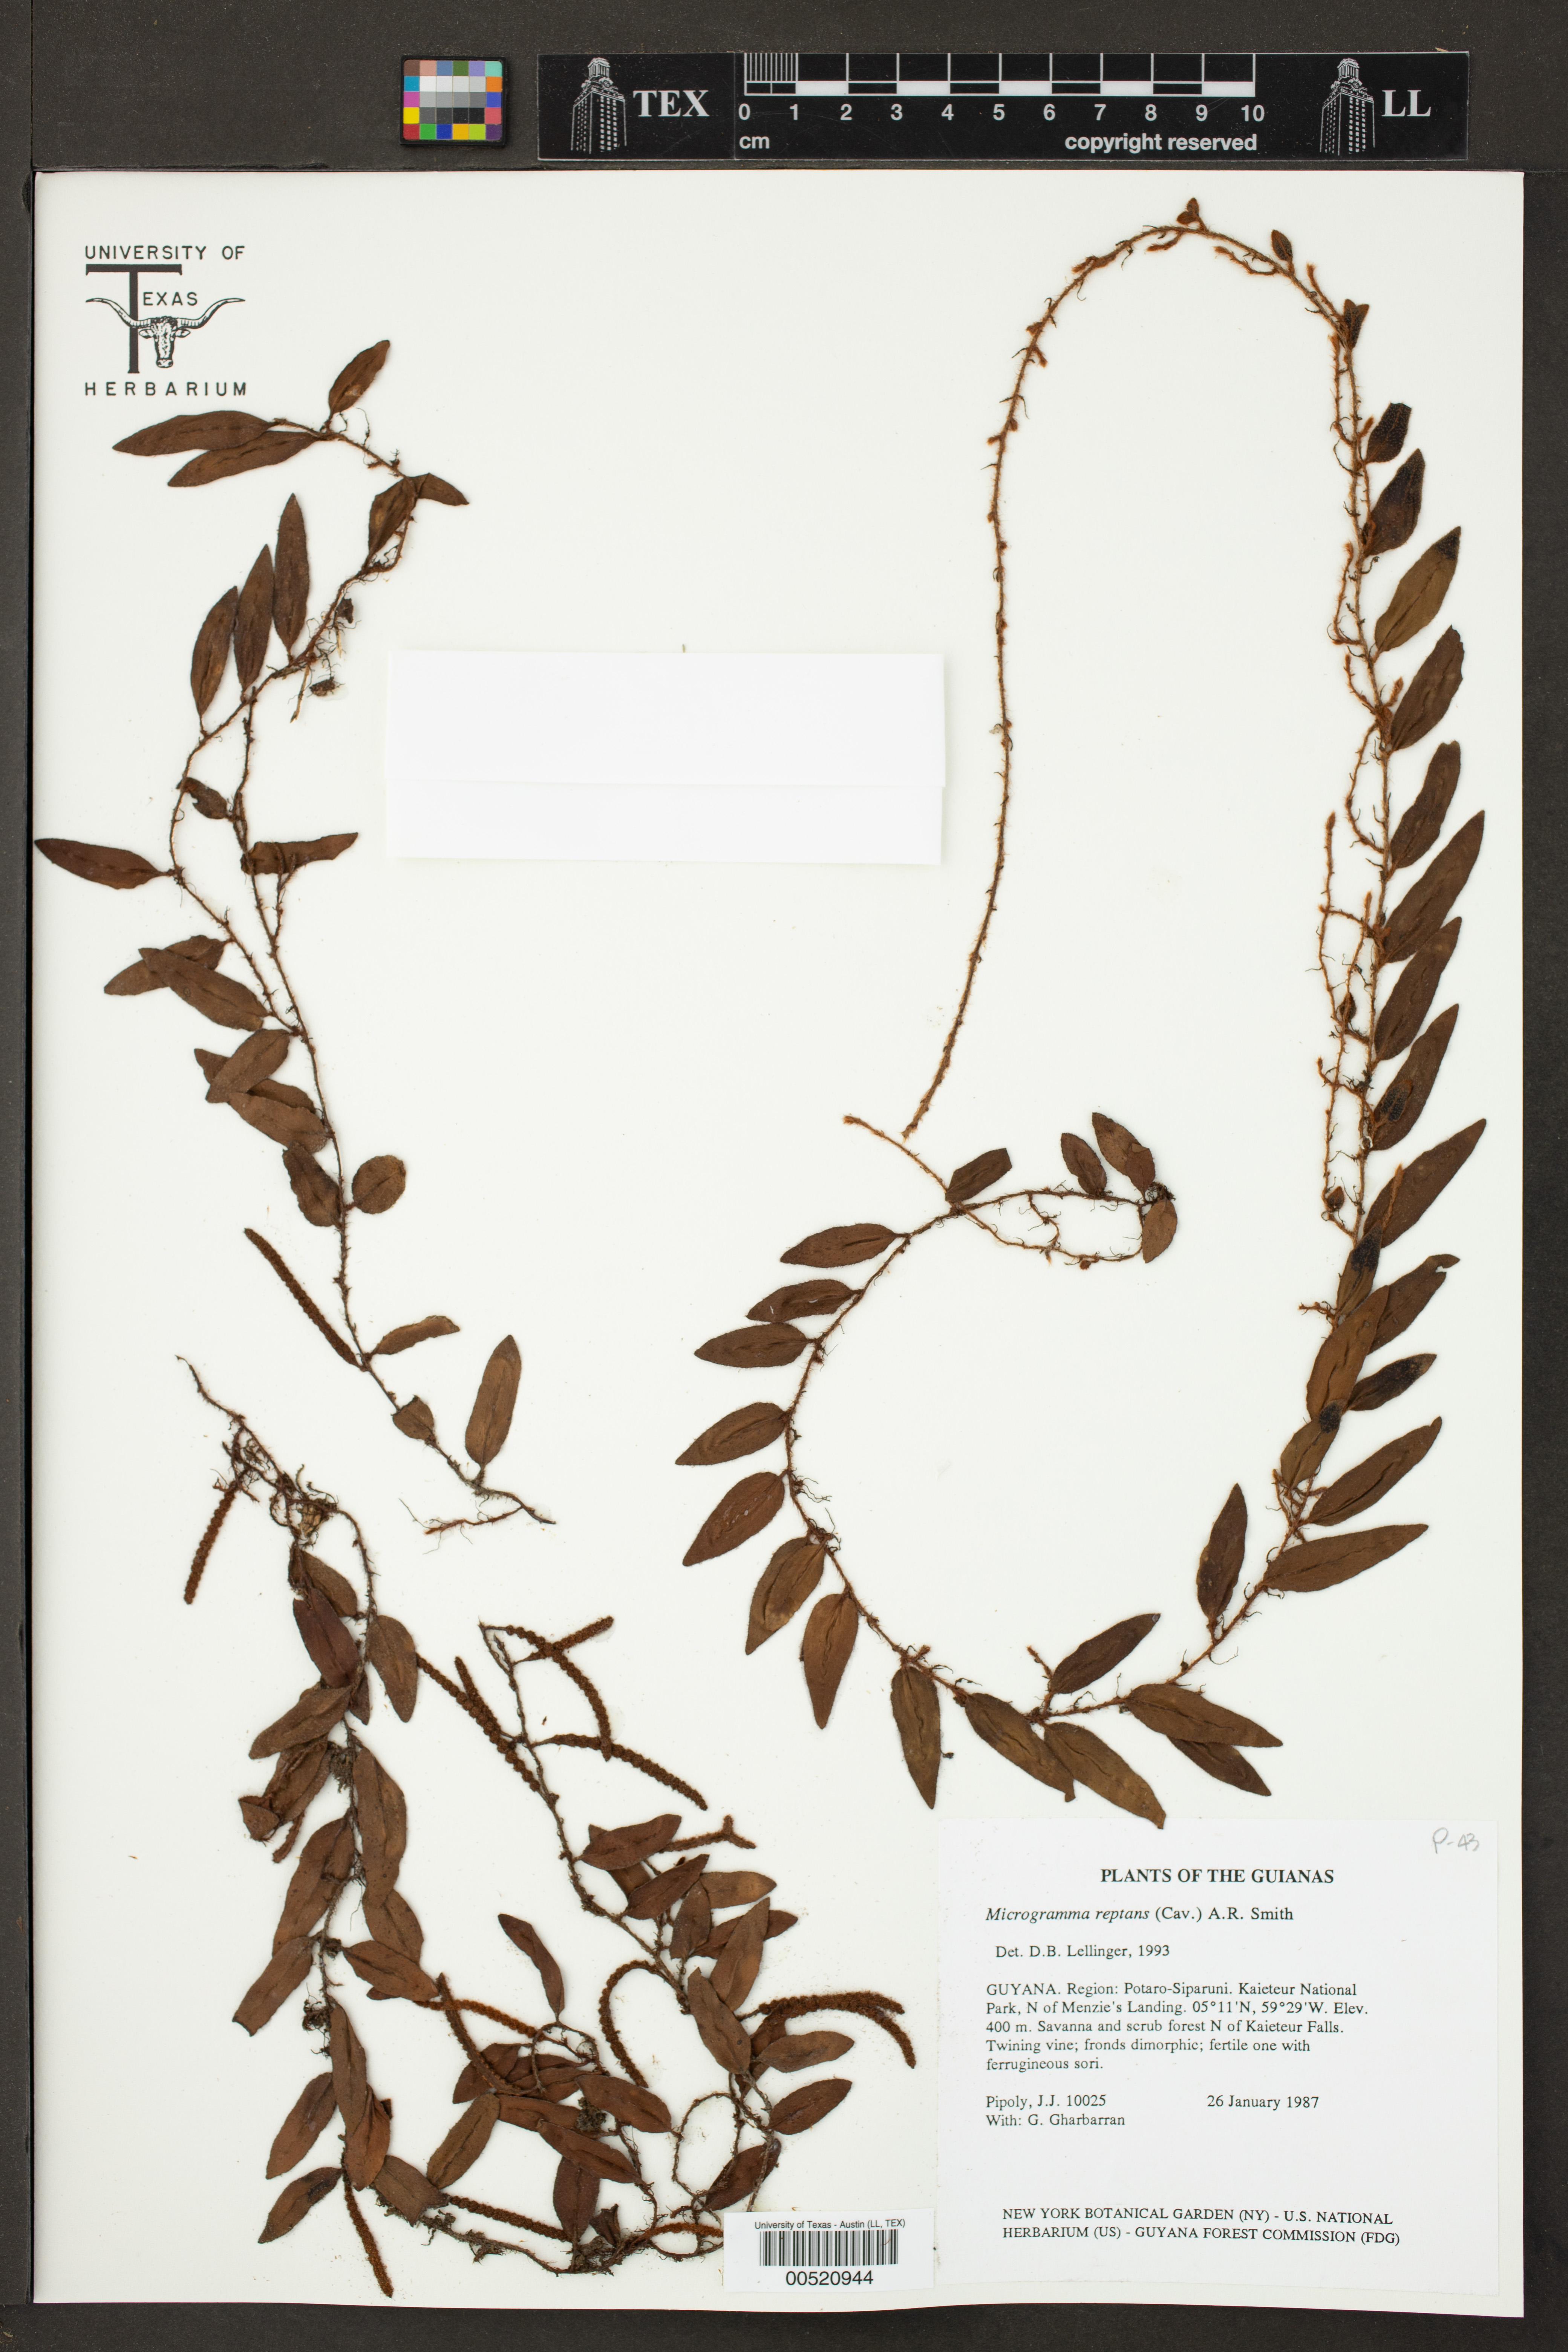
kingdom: Plantae
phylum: Tracheophyta
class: Polypodiopsida
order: Polypodiales
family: Polypodiaceae
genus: Microgramma
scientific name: Microgramma reptans
